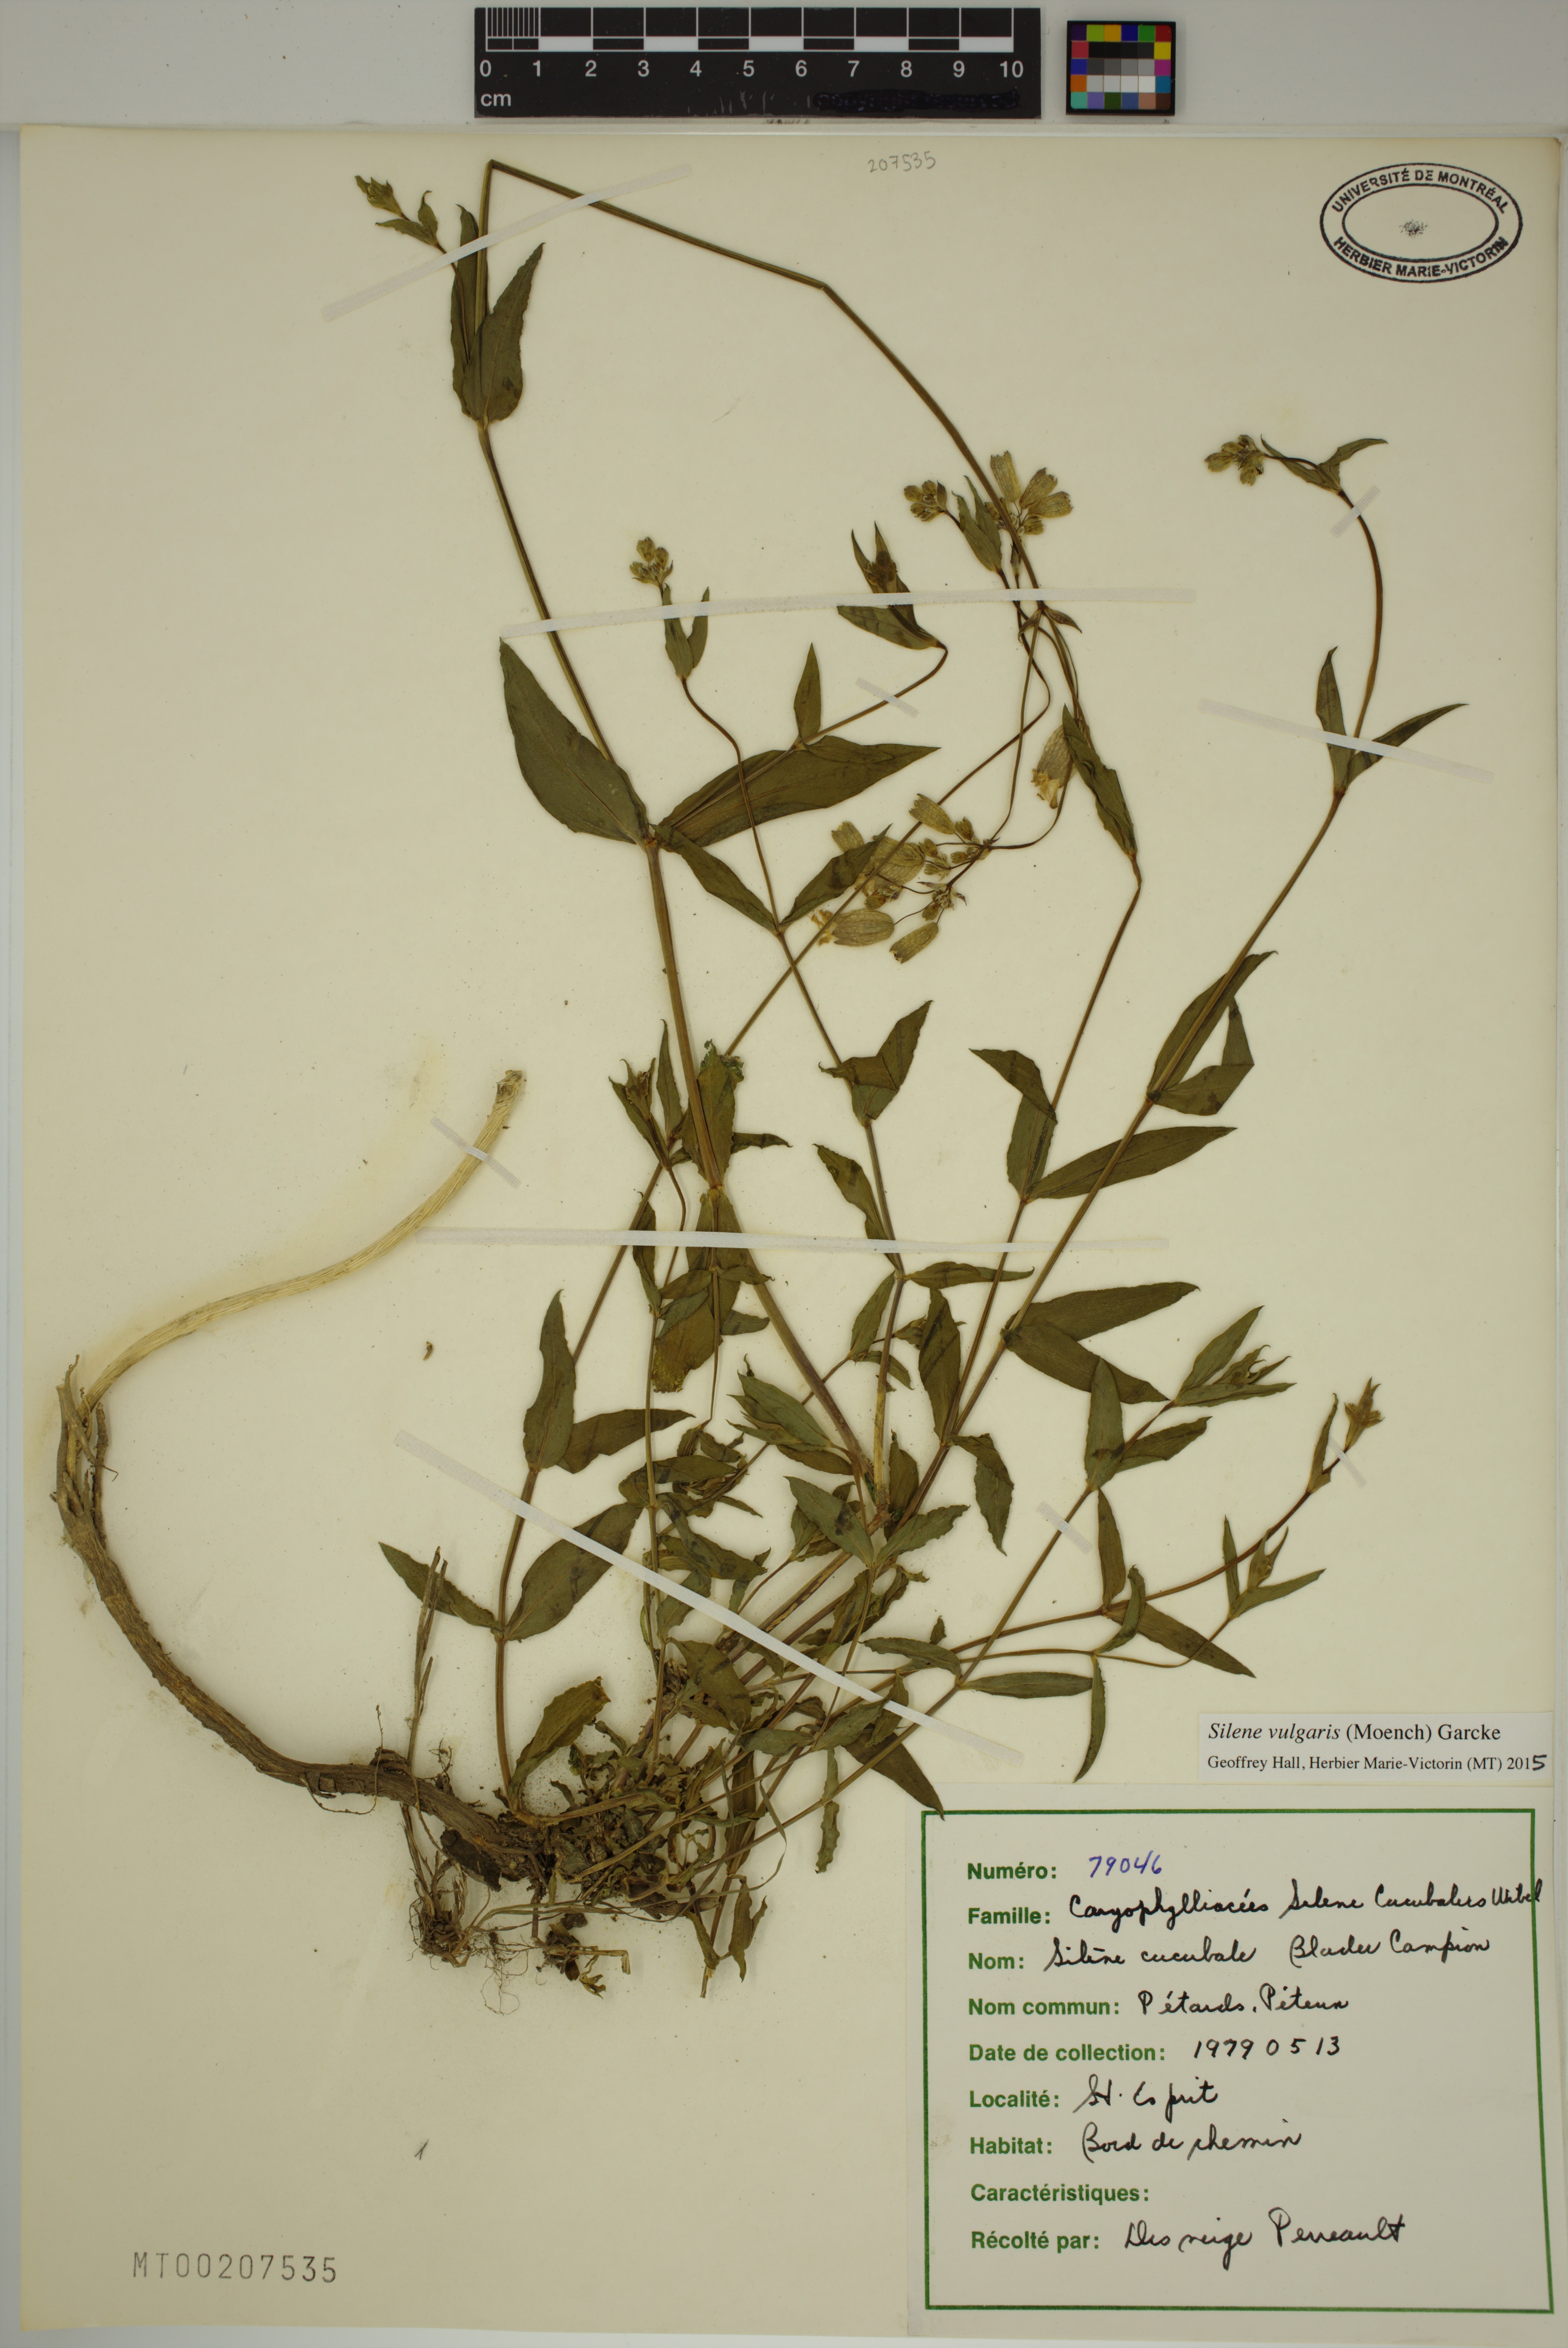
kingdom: Plantae
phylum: Tracheophyta
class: Magnoliopsida
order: Caryophyllales
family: Caryophyllaceae
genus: Silene
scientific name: Silene vulgaris
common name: Bladder campion
